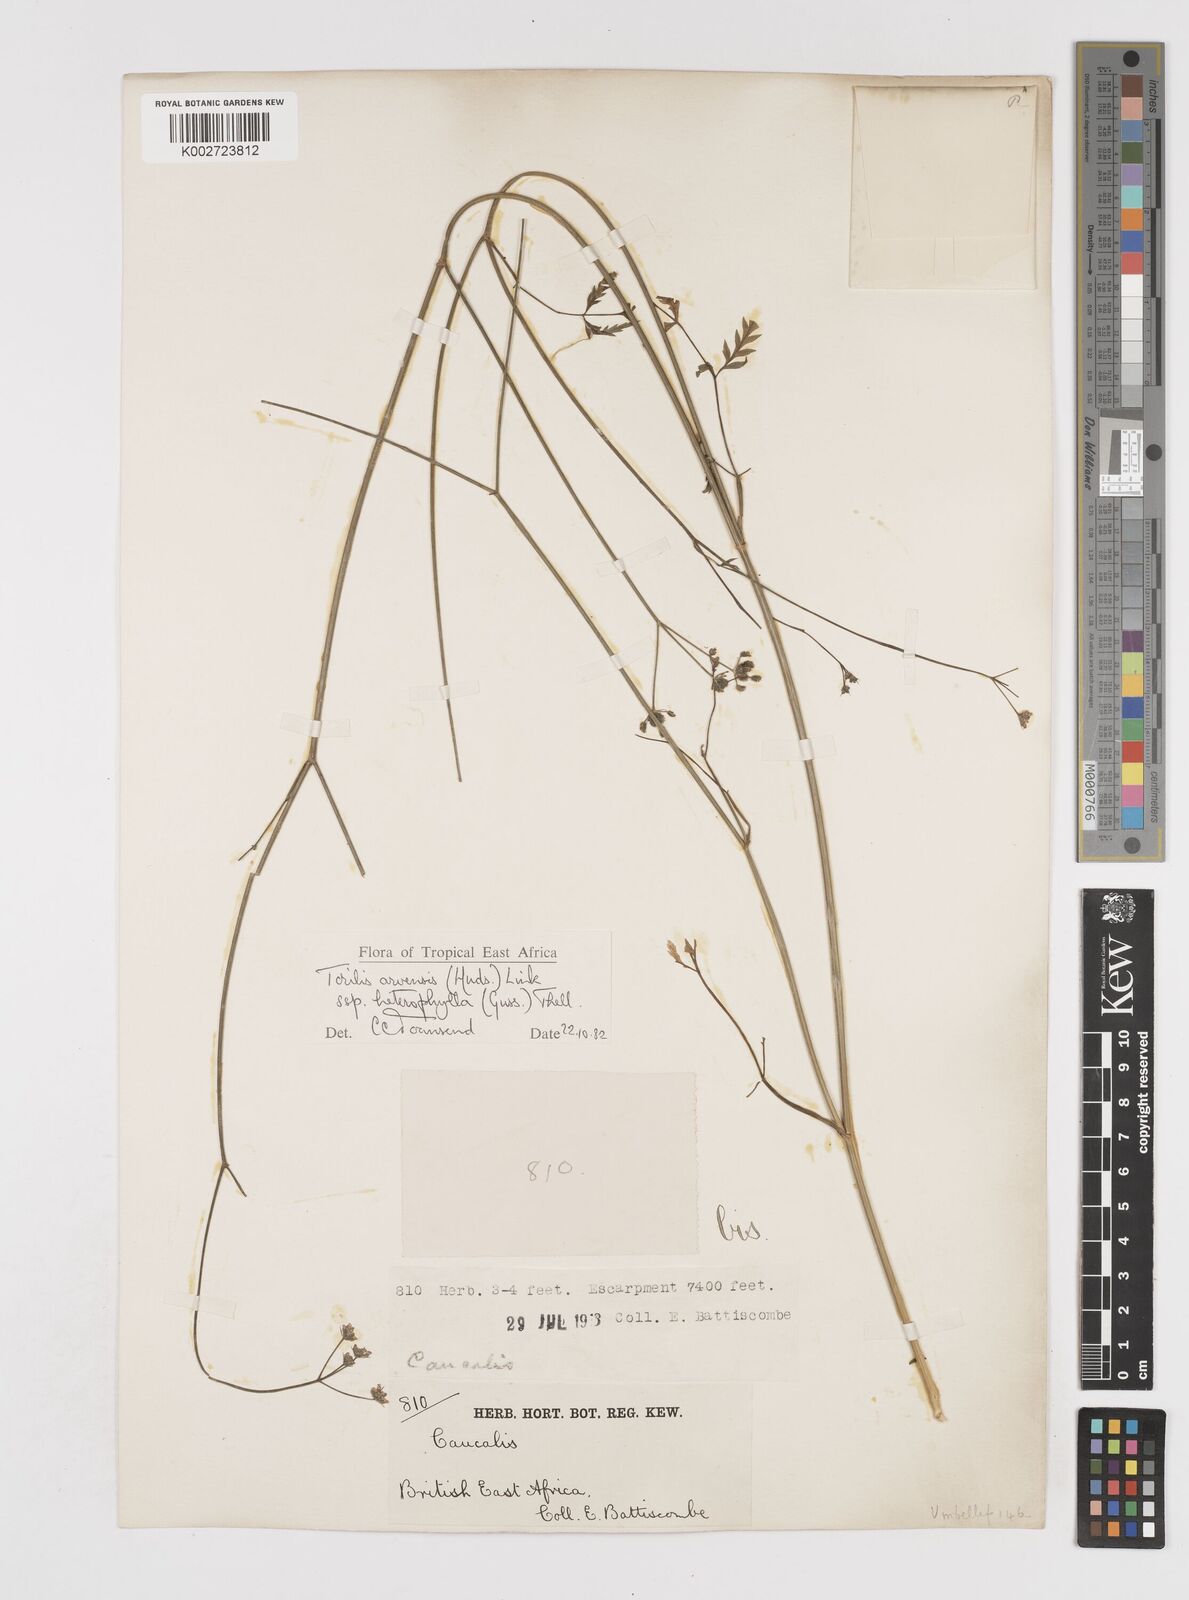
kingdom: Plantae
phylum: Tracheophyta
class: Magnoliopsida
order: Apiales
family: Apiaceae
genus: Torilis
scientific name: Torilis arvensis
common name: Spreading hedge-parsley
